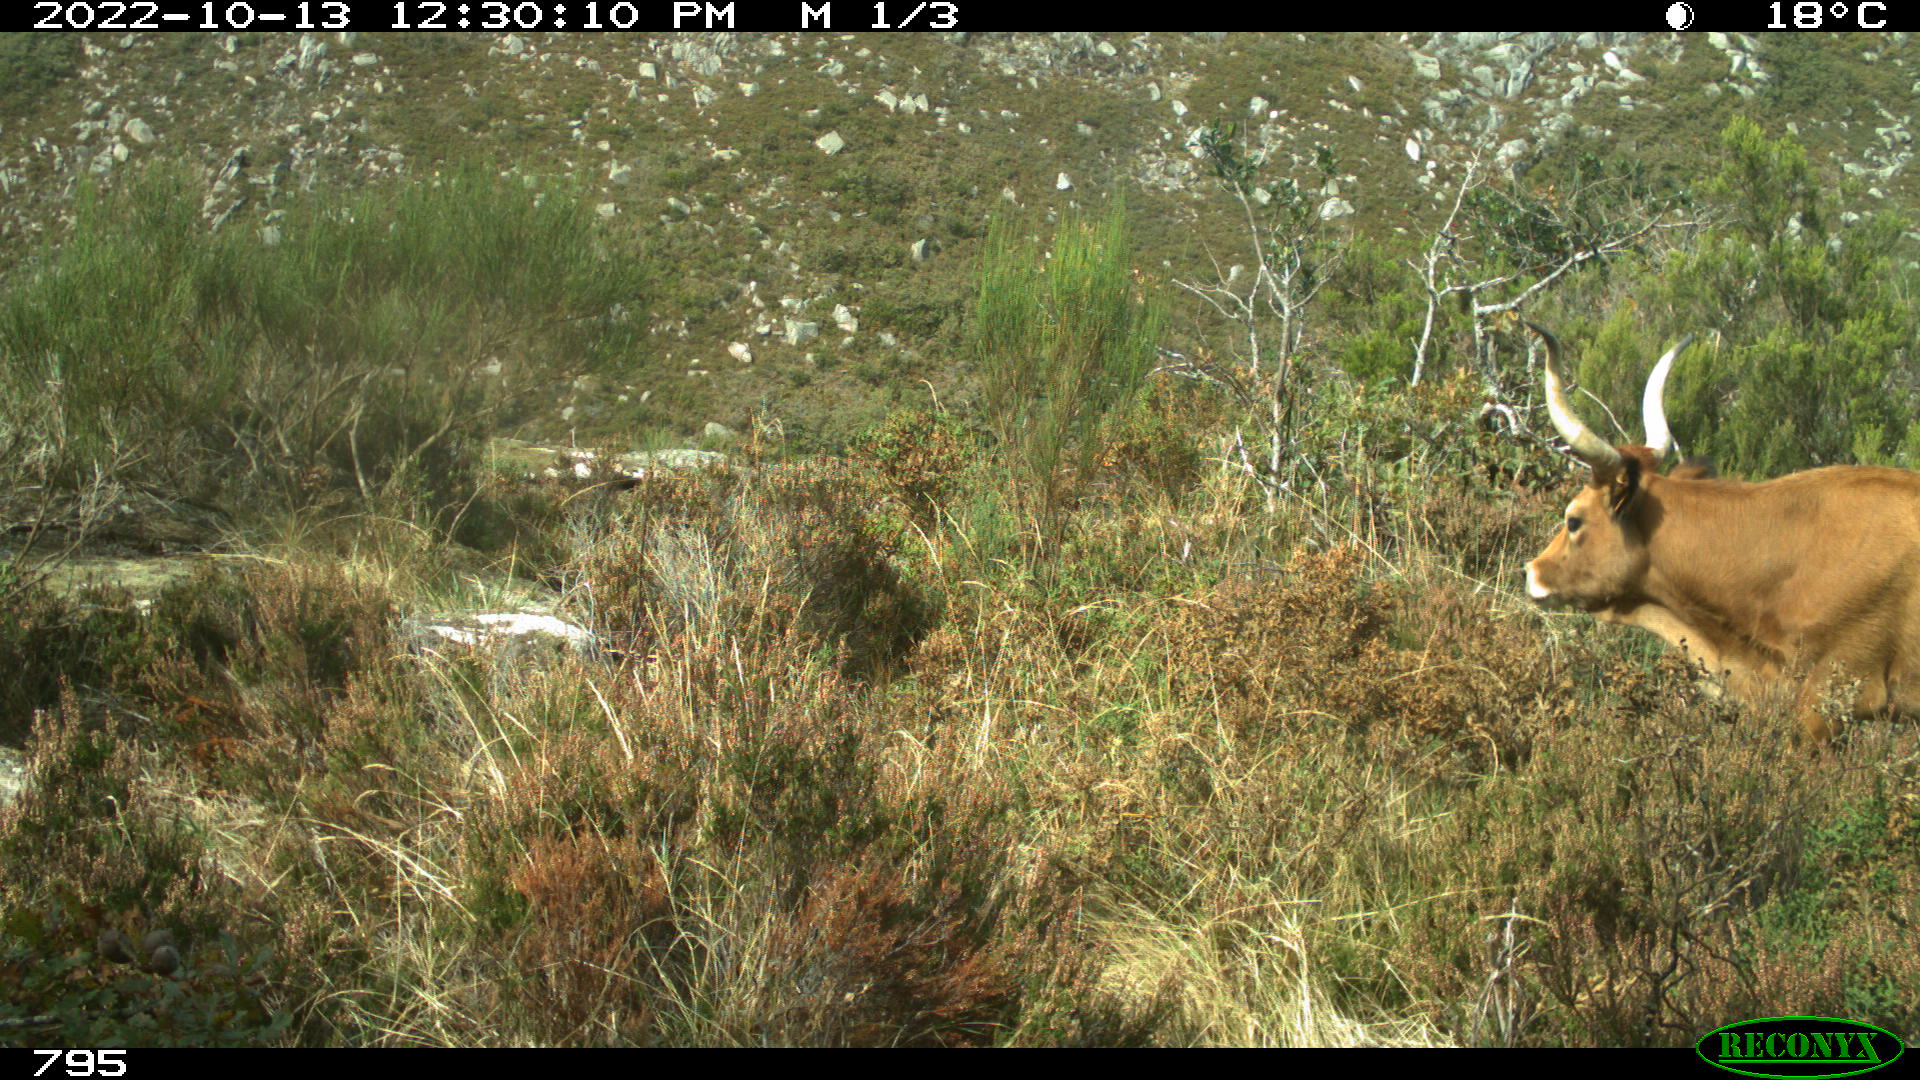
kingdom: Animalia
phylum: Chordata
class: Mammalia
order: Artiodactyla
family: Bovidae
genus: Bos
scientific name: Bos taurus
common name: Domesticated cattle
